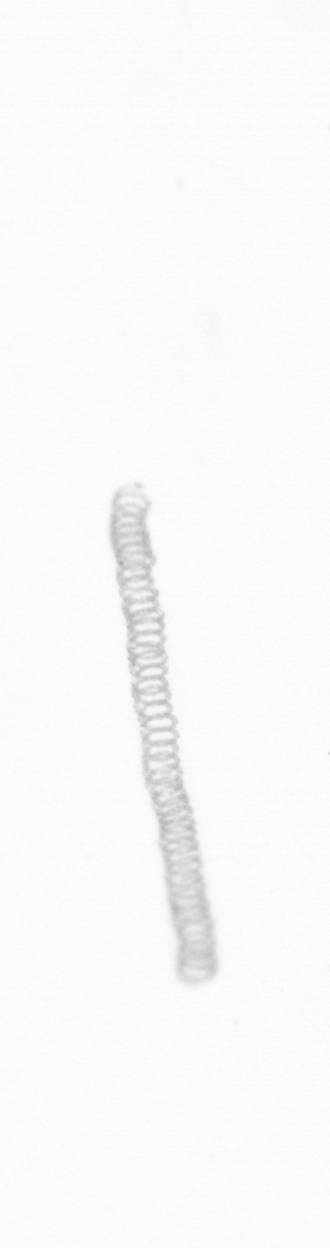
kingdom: Chromista
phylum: Ochrophyta
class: Bacillariophyceae
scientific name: Bacillariophyceae
